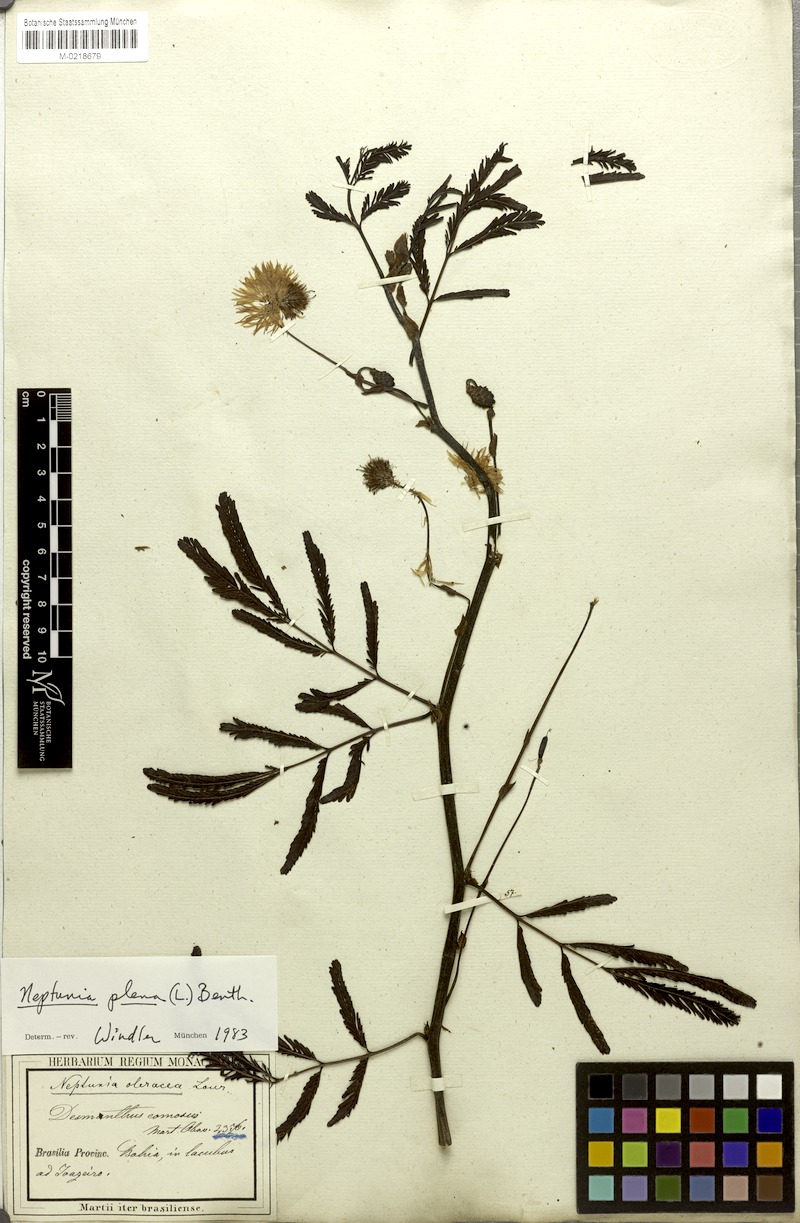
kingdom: Plantae
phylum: Tracheophyta
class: Magnoliopsida
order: Fabales
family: Fabaceae
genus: Neptunia
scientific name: Neptunia plena
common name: Dead and awake
